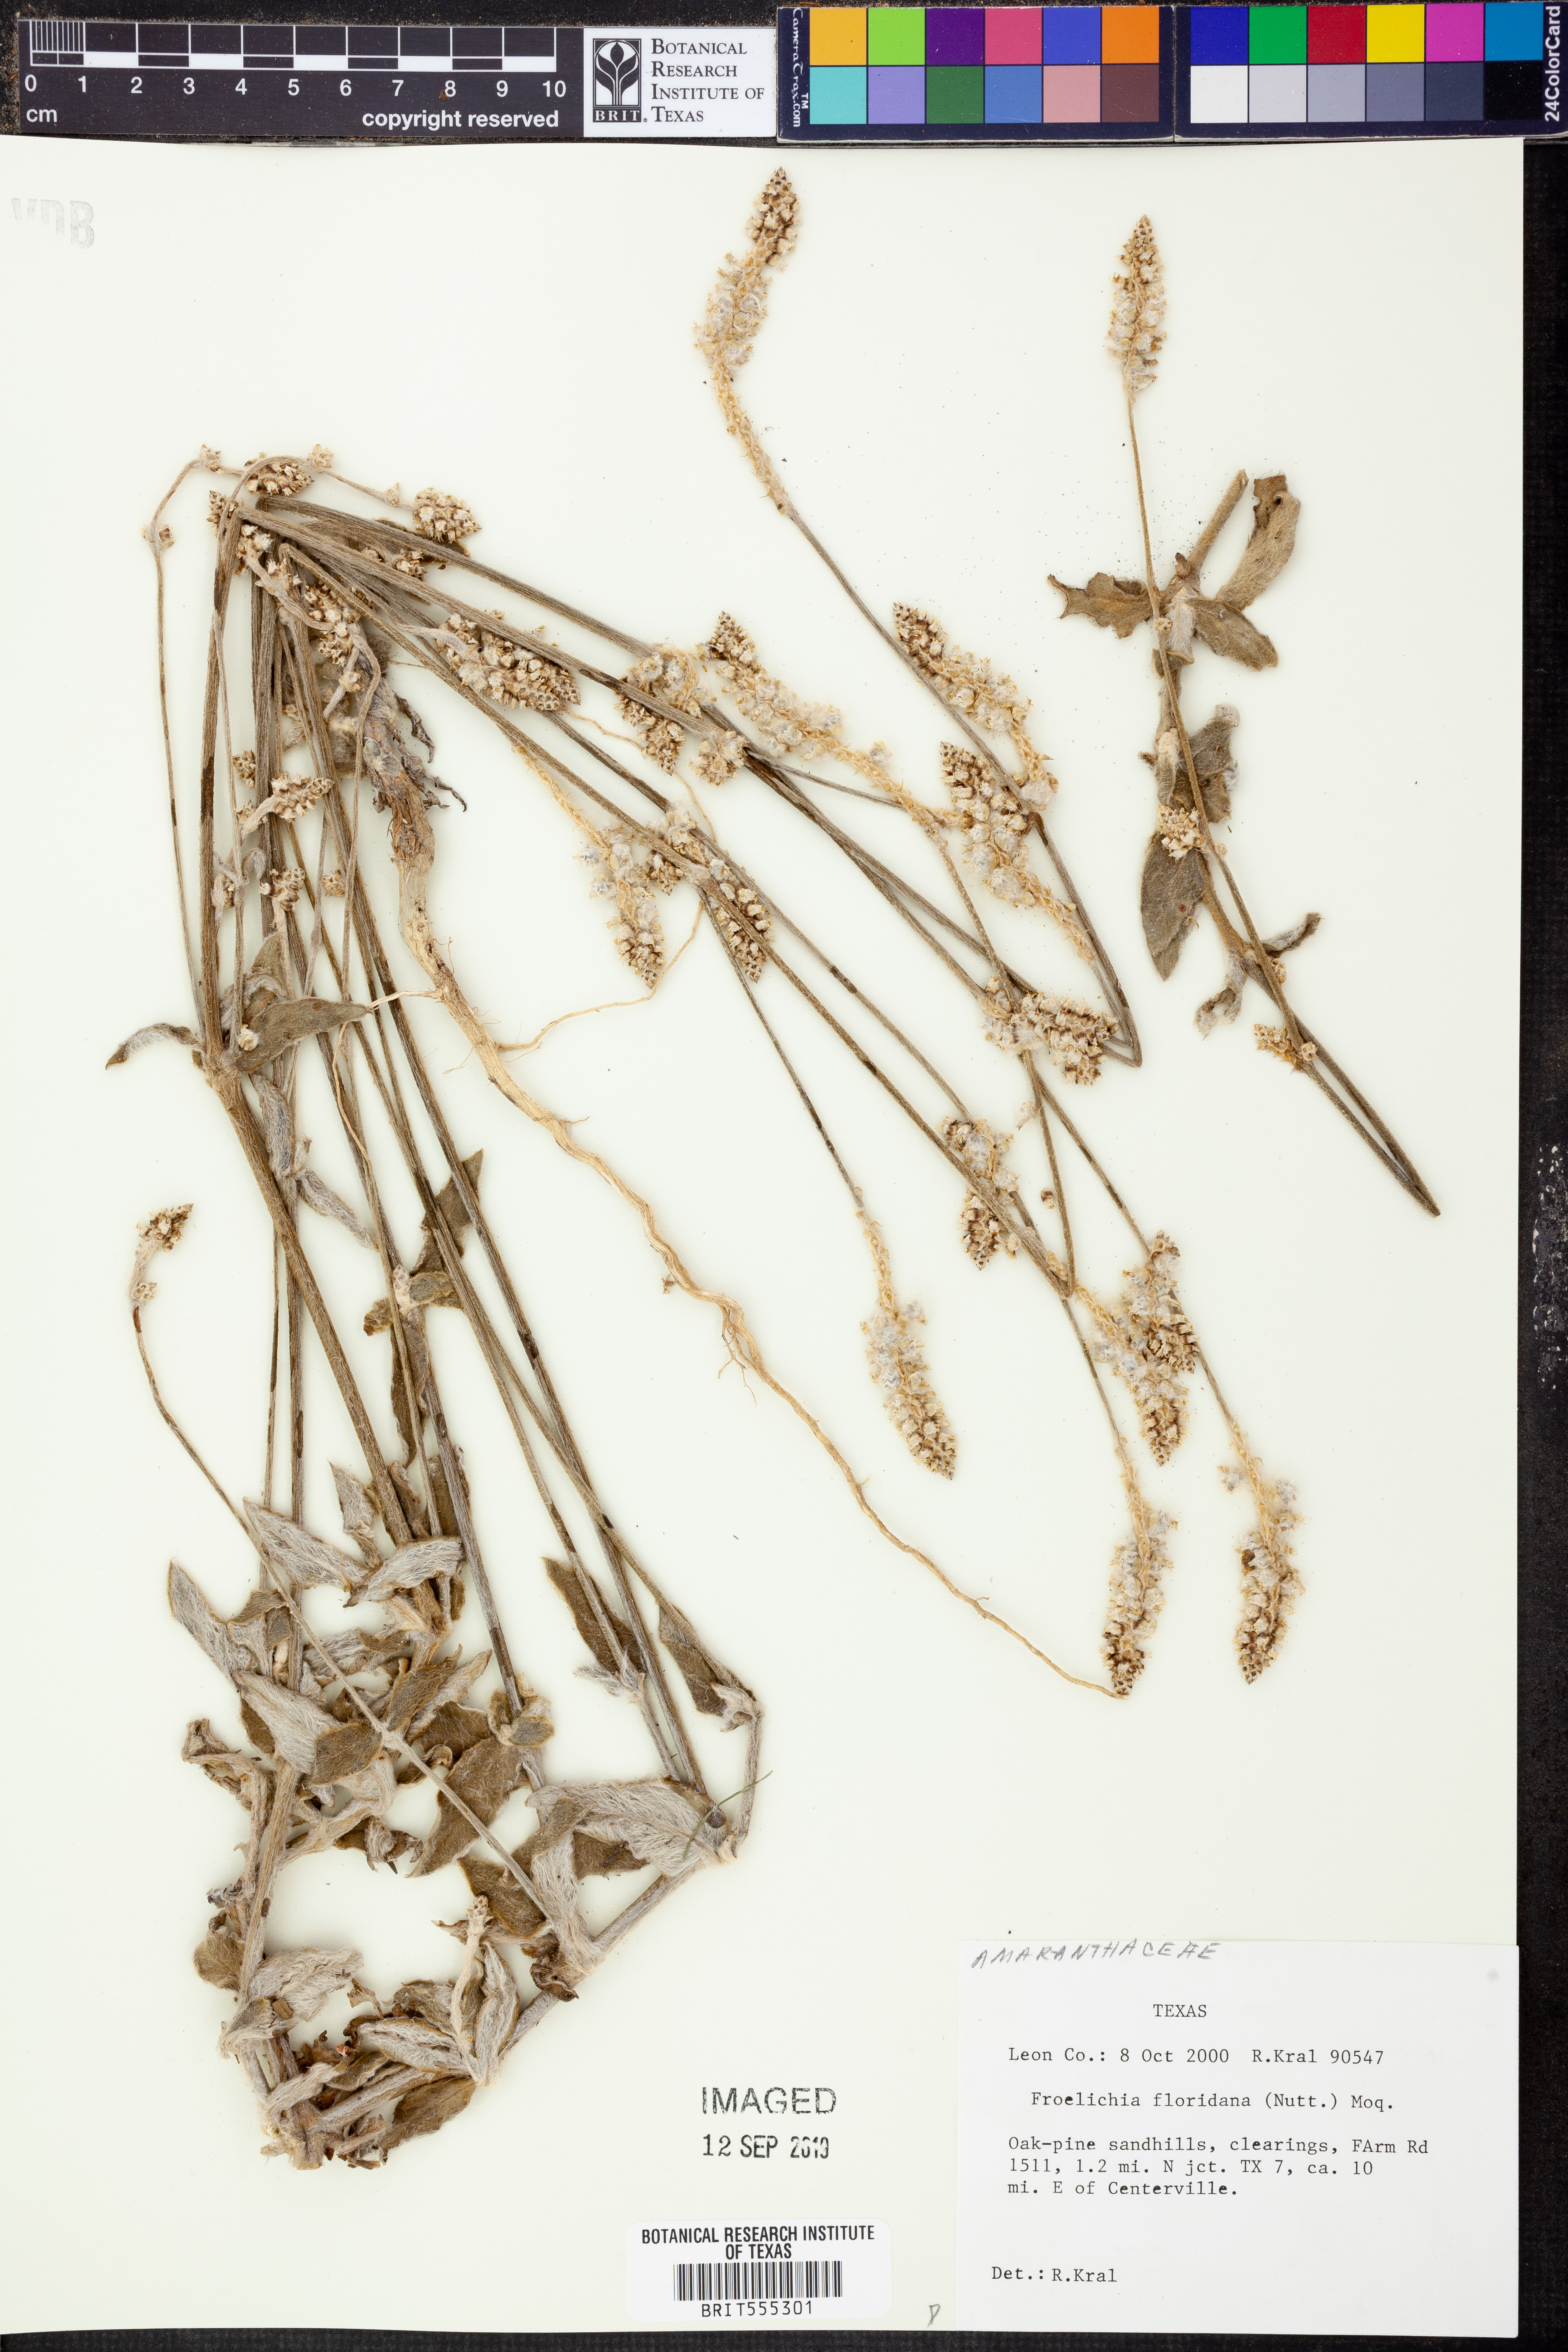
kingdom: Plantae
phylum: Tracheophyta
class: Magnoliopsida
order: Caryophyllales
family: Amaranthaceae
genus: Froelichia
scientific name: Froelichia floridana
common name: Florida snake-cotton
